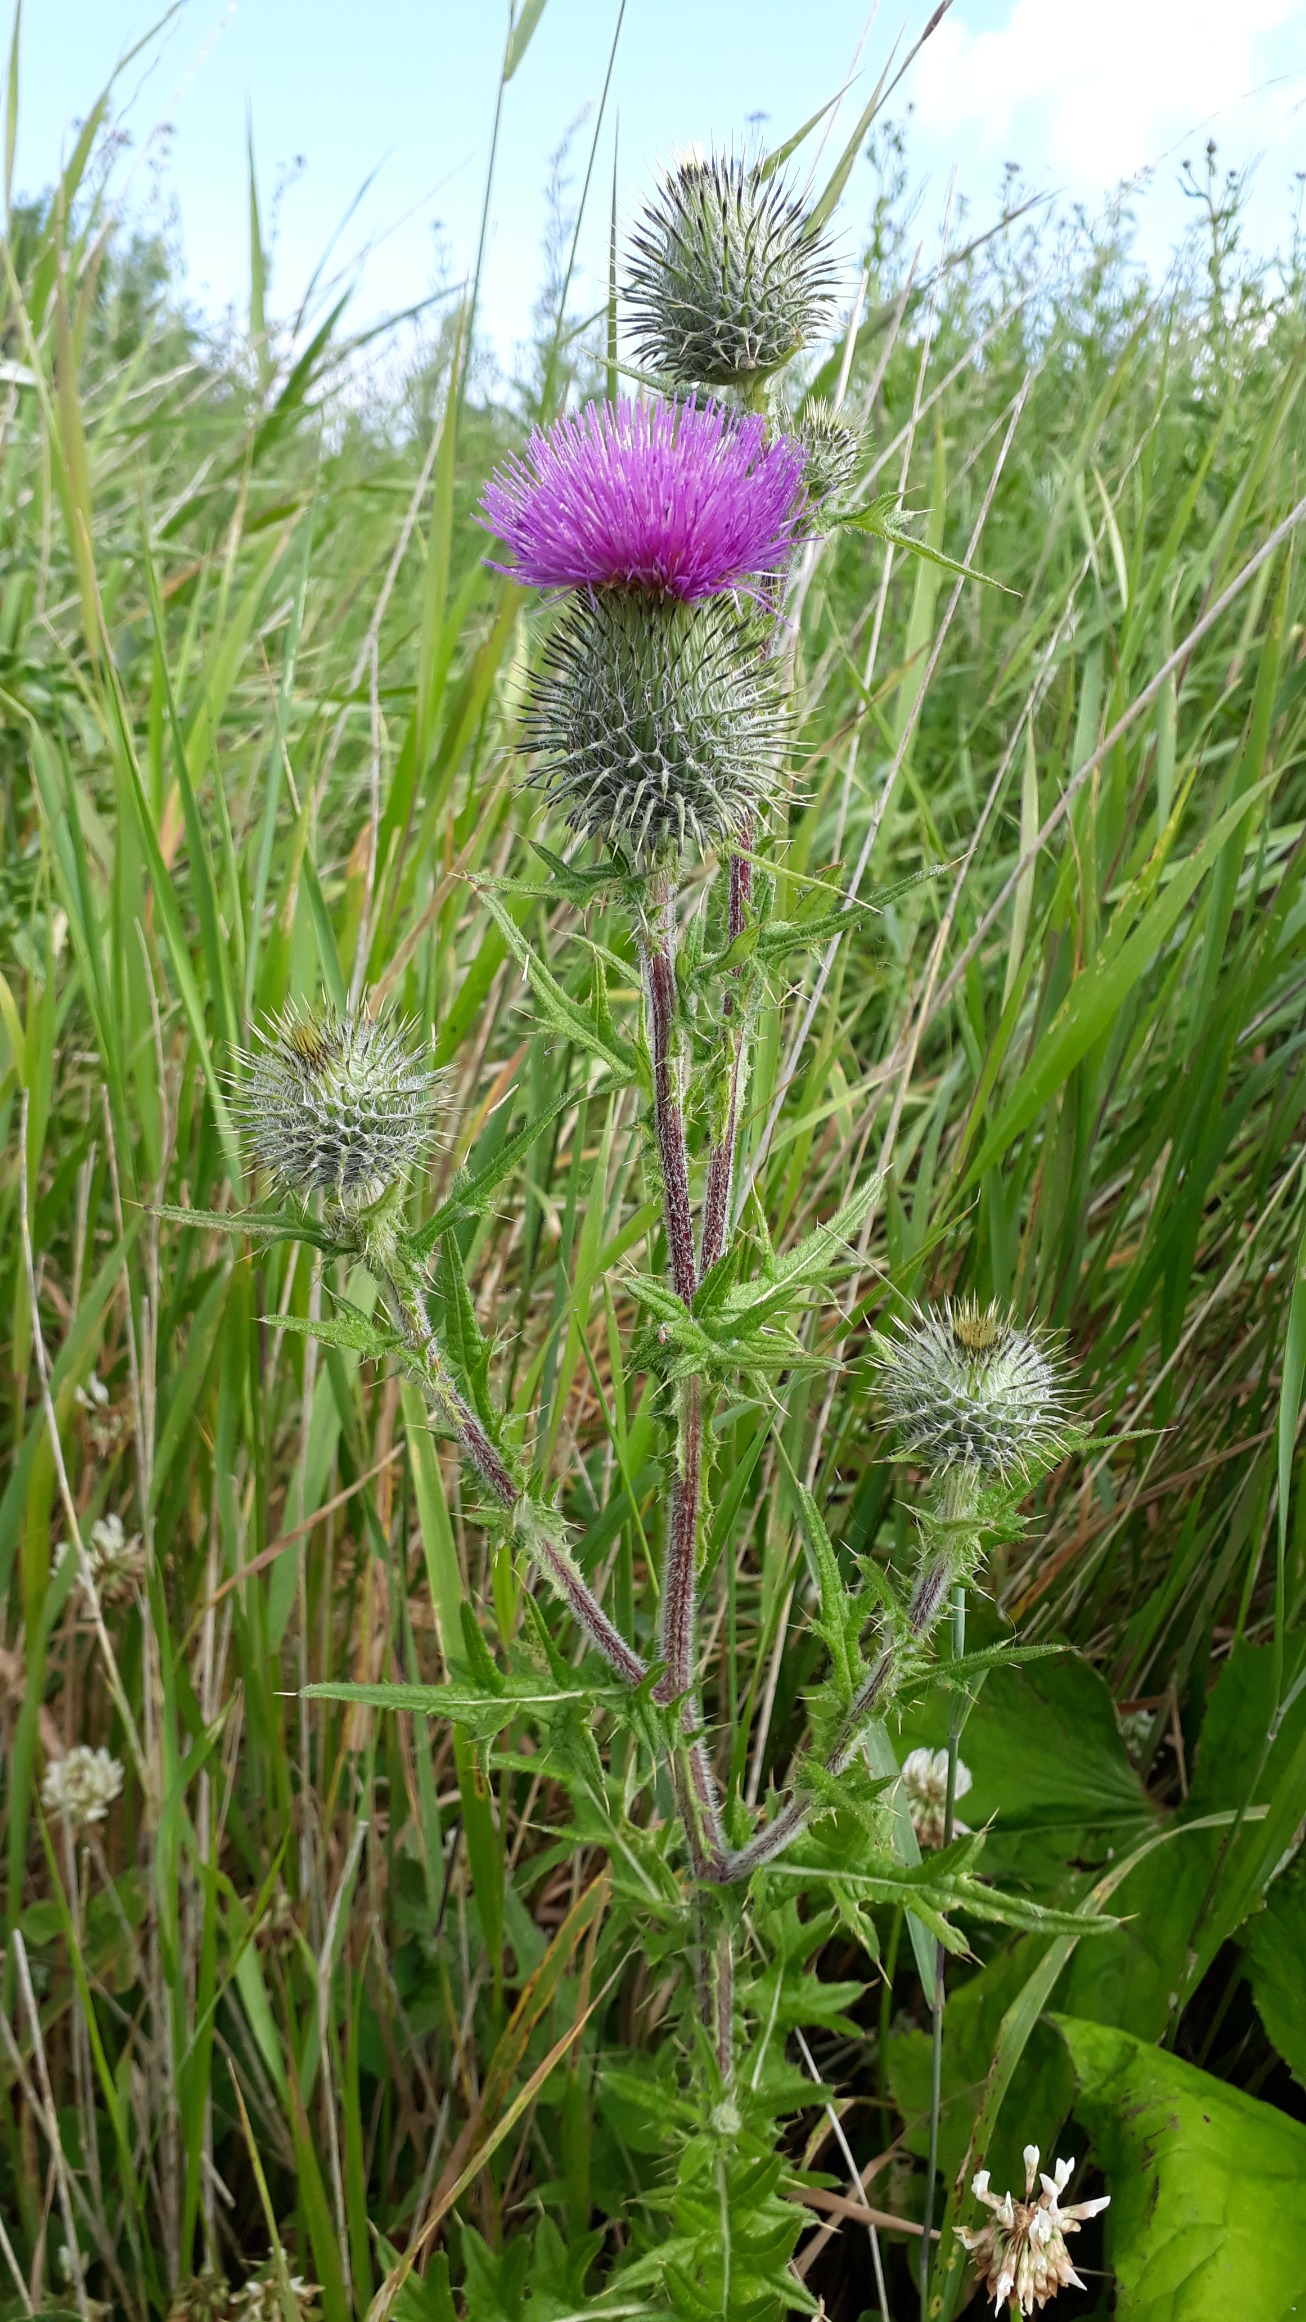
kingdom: Plantae
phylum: Tracheophyta
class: Magnoliopsida
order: Asterales
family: Asteraceae
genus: Cirsium
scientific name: Cirsium vulgare
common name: Horse-tidsel
